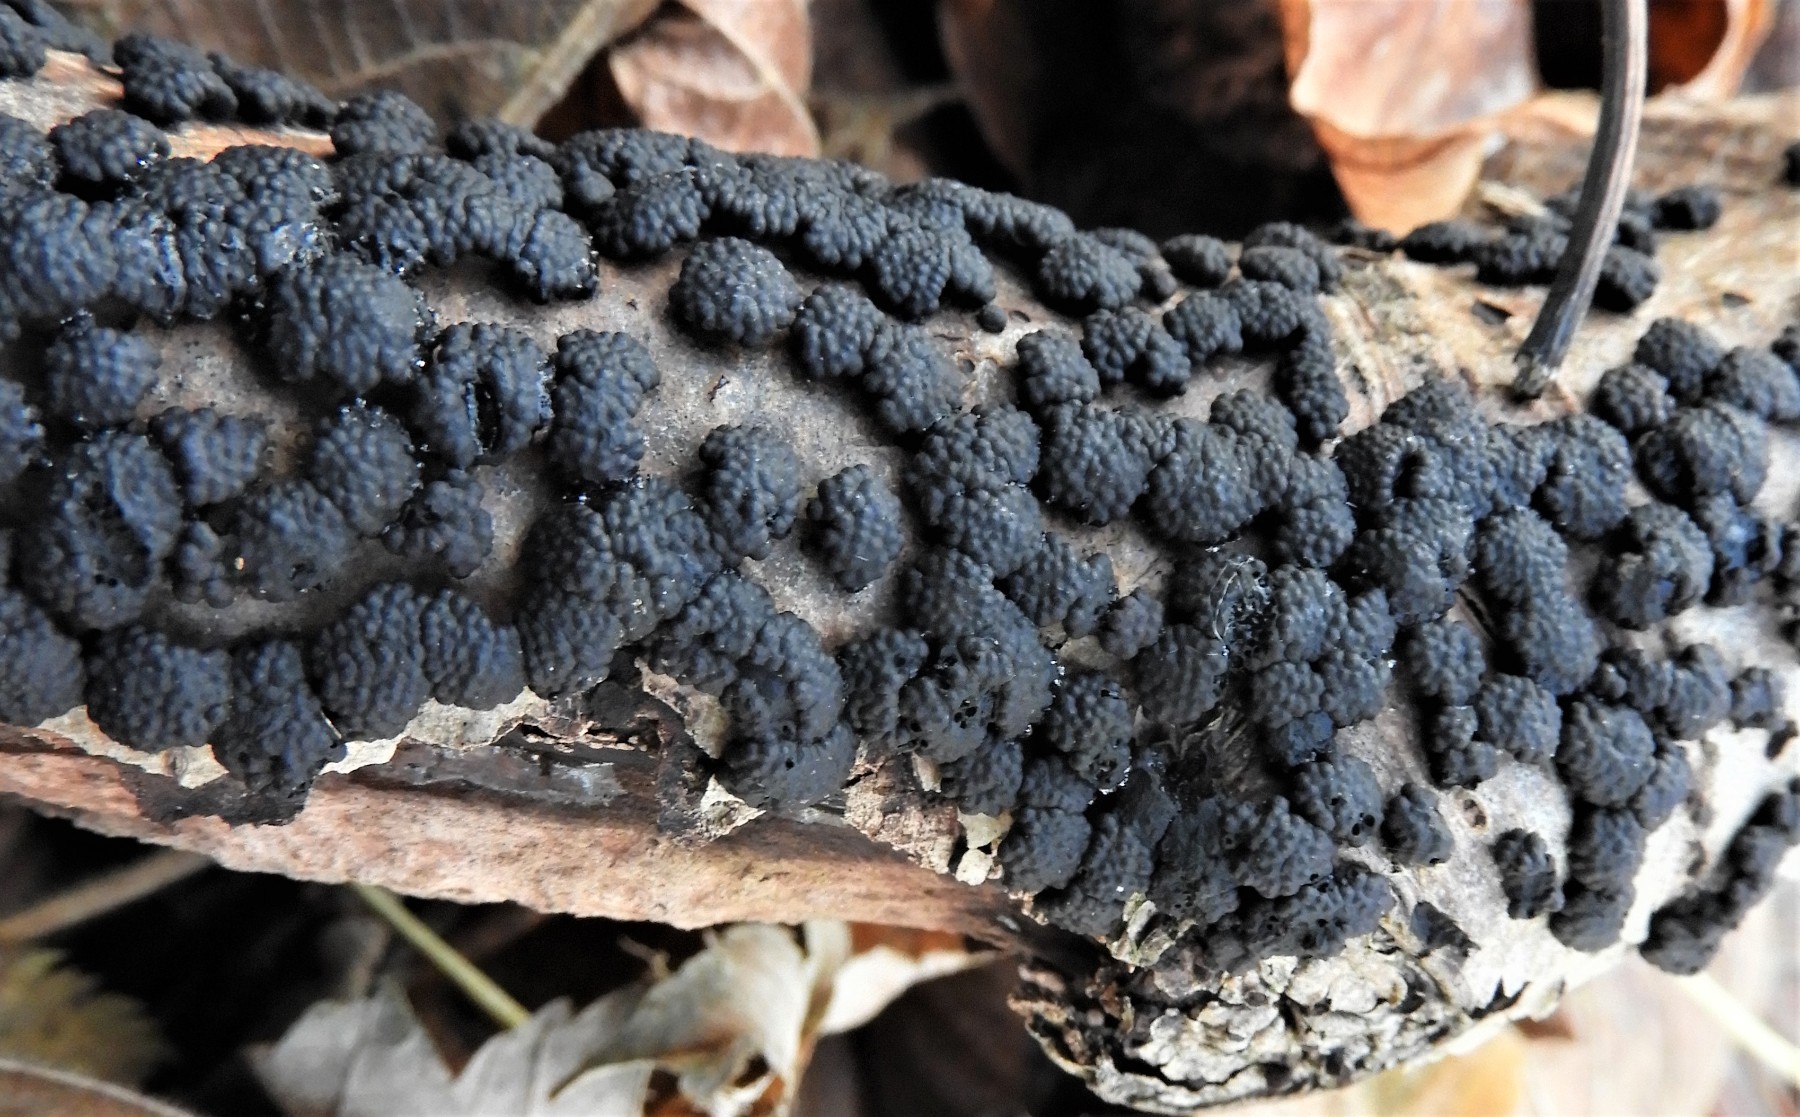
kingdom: Fungi
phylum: Ascomycota
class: Sordariomycetes
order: Xylariales
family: Hypoxylaceae
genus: Jackrogersella
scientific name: Jackrogersella cohaerens
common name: sammenflydende kulbær
